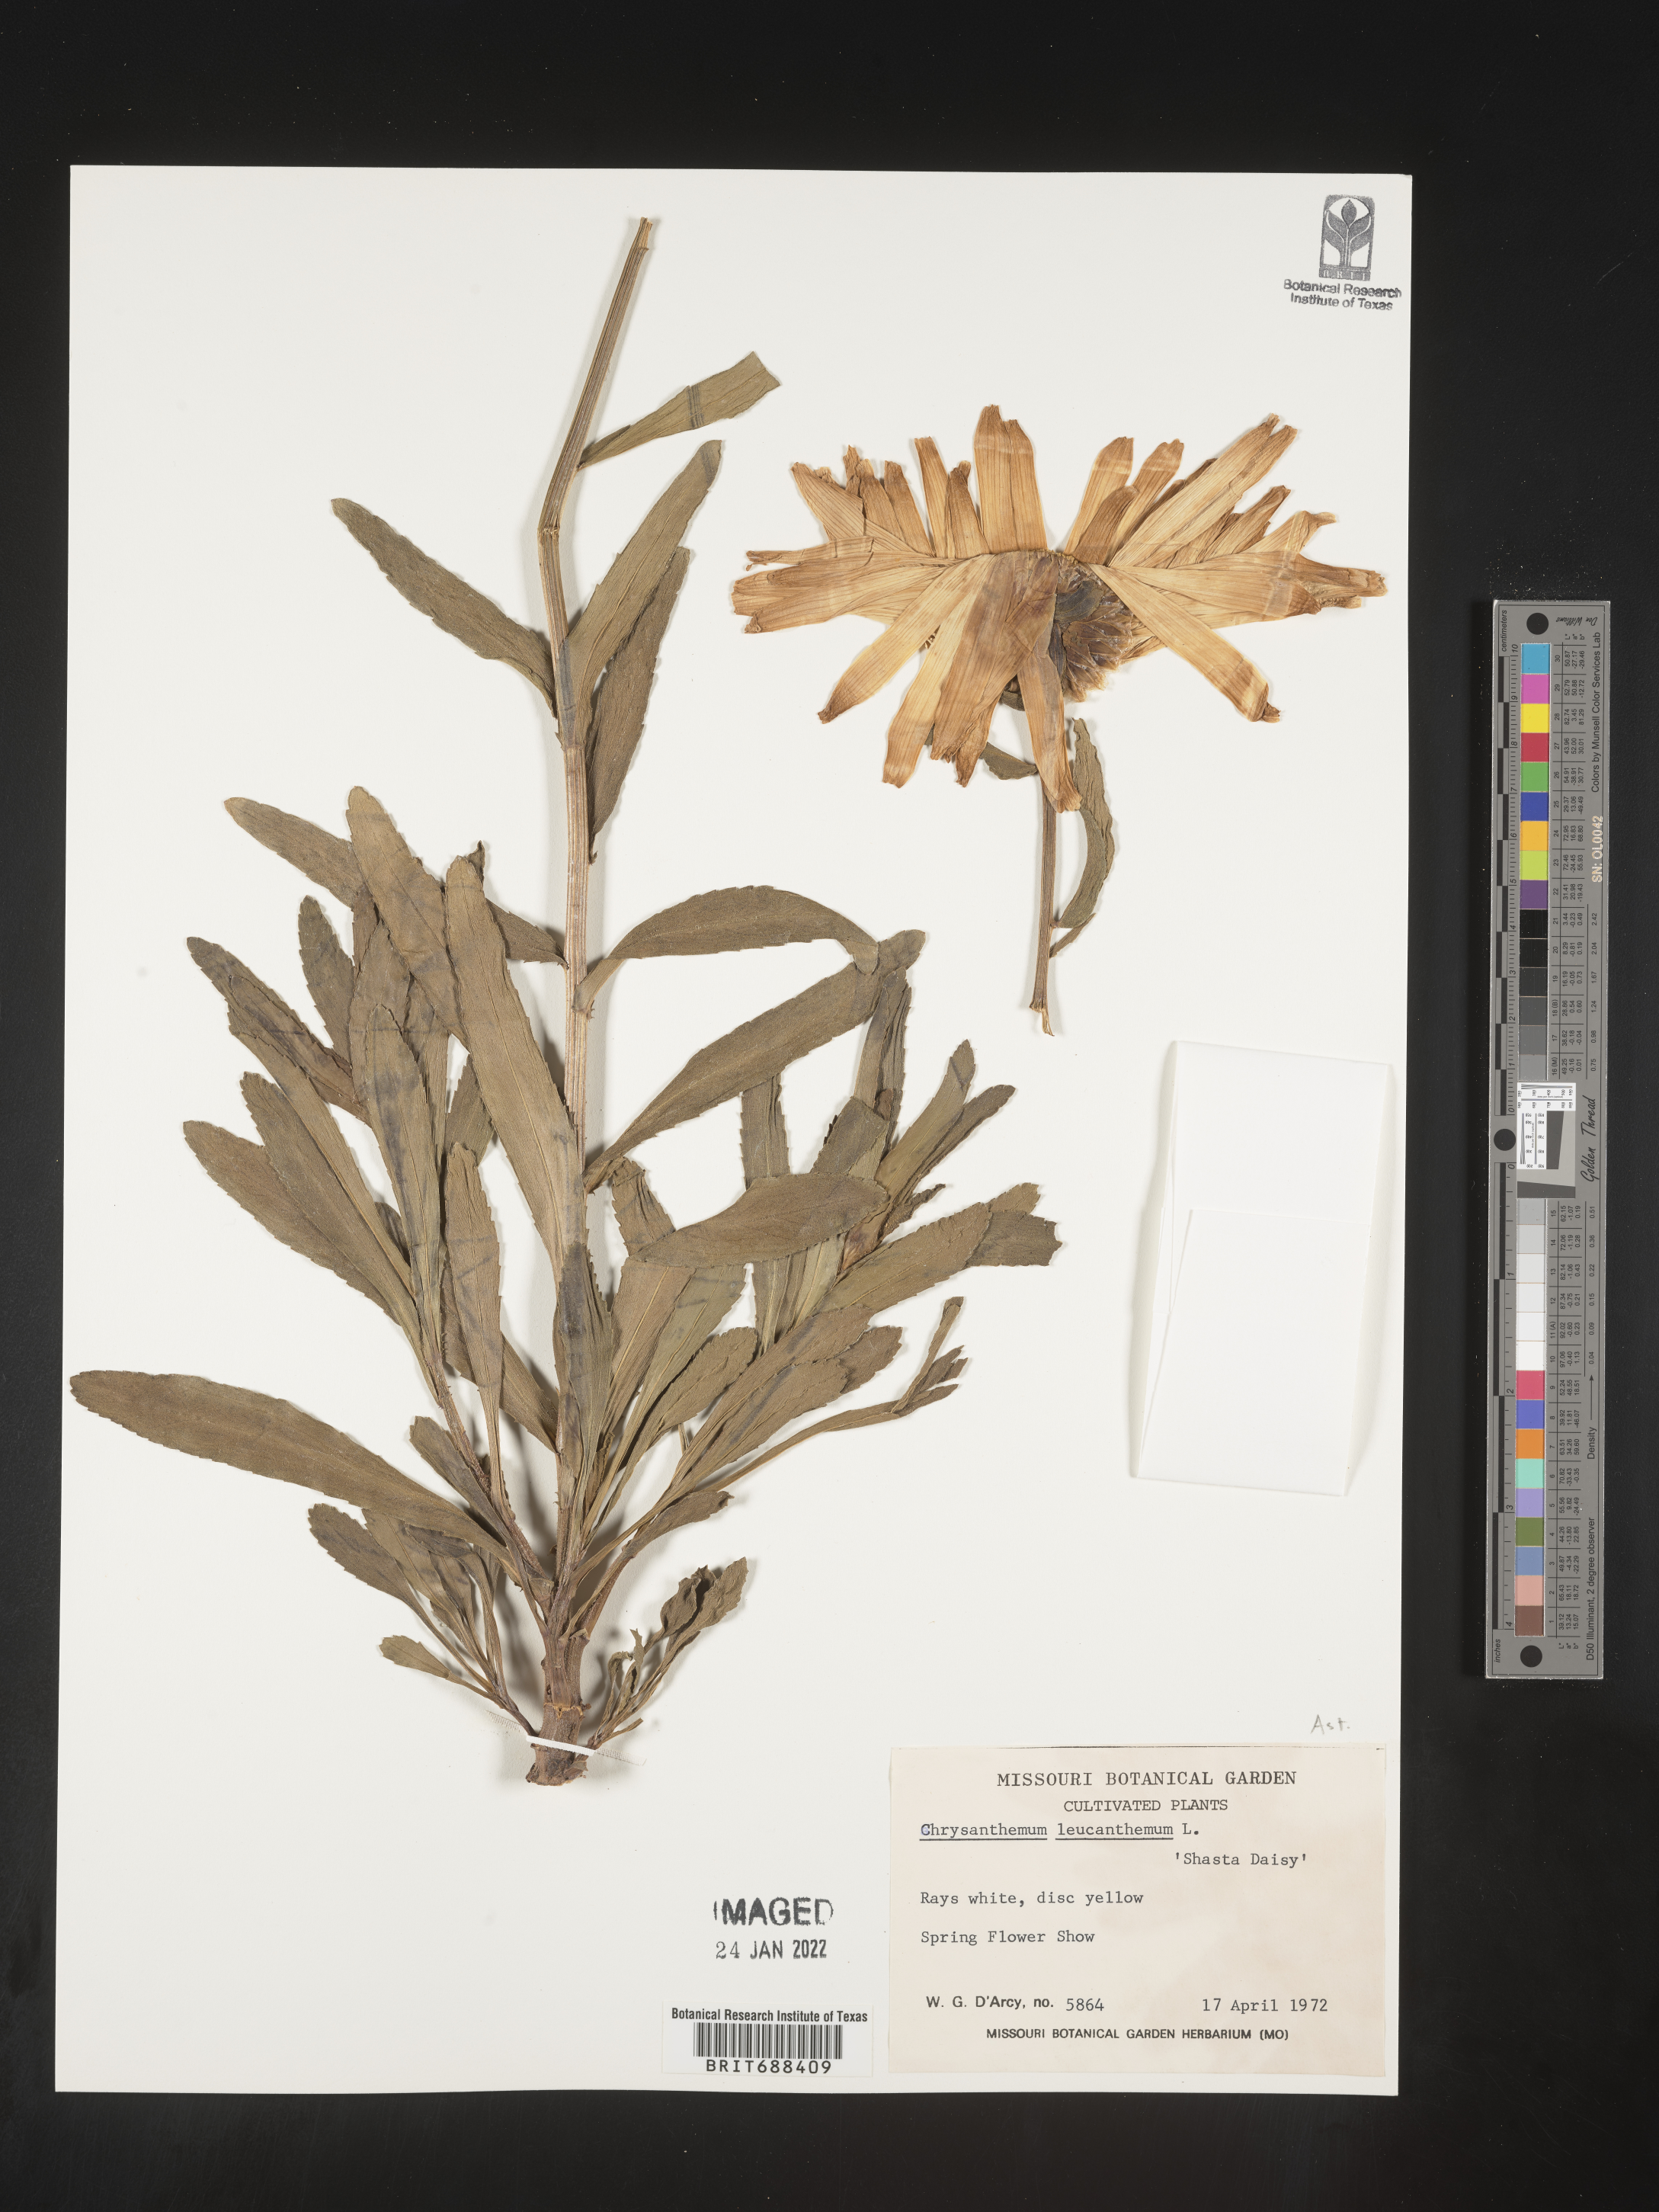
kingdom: Plantae
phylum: Tracheophyta
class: Magnoliopsida
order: Asterales
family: Asteraceae
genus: Chrysanthemum
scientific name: Chrysanthemum
